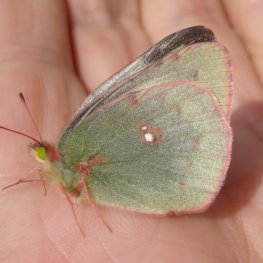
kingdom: Animalia
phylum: Arthropoda
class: Insecta
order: Lepidoptera
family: Pieridae
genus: Colias
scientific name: Colias philodice
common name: Clouded Sulphur
